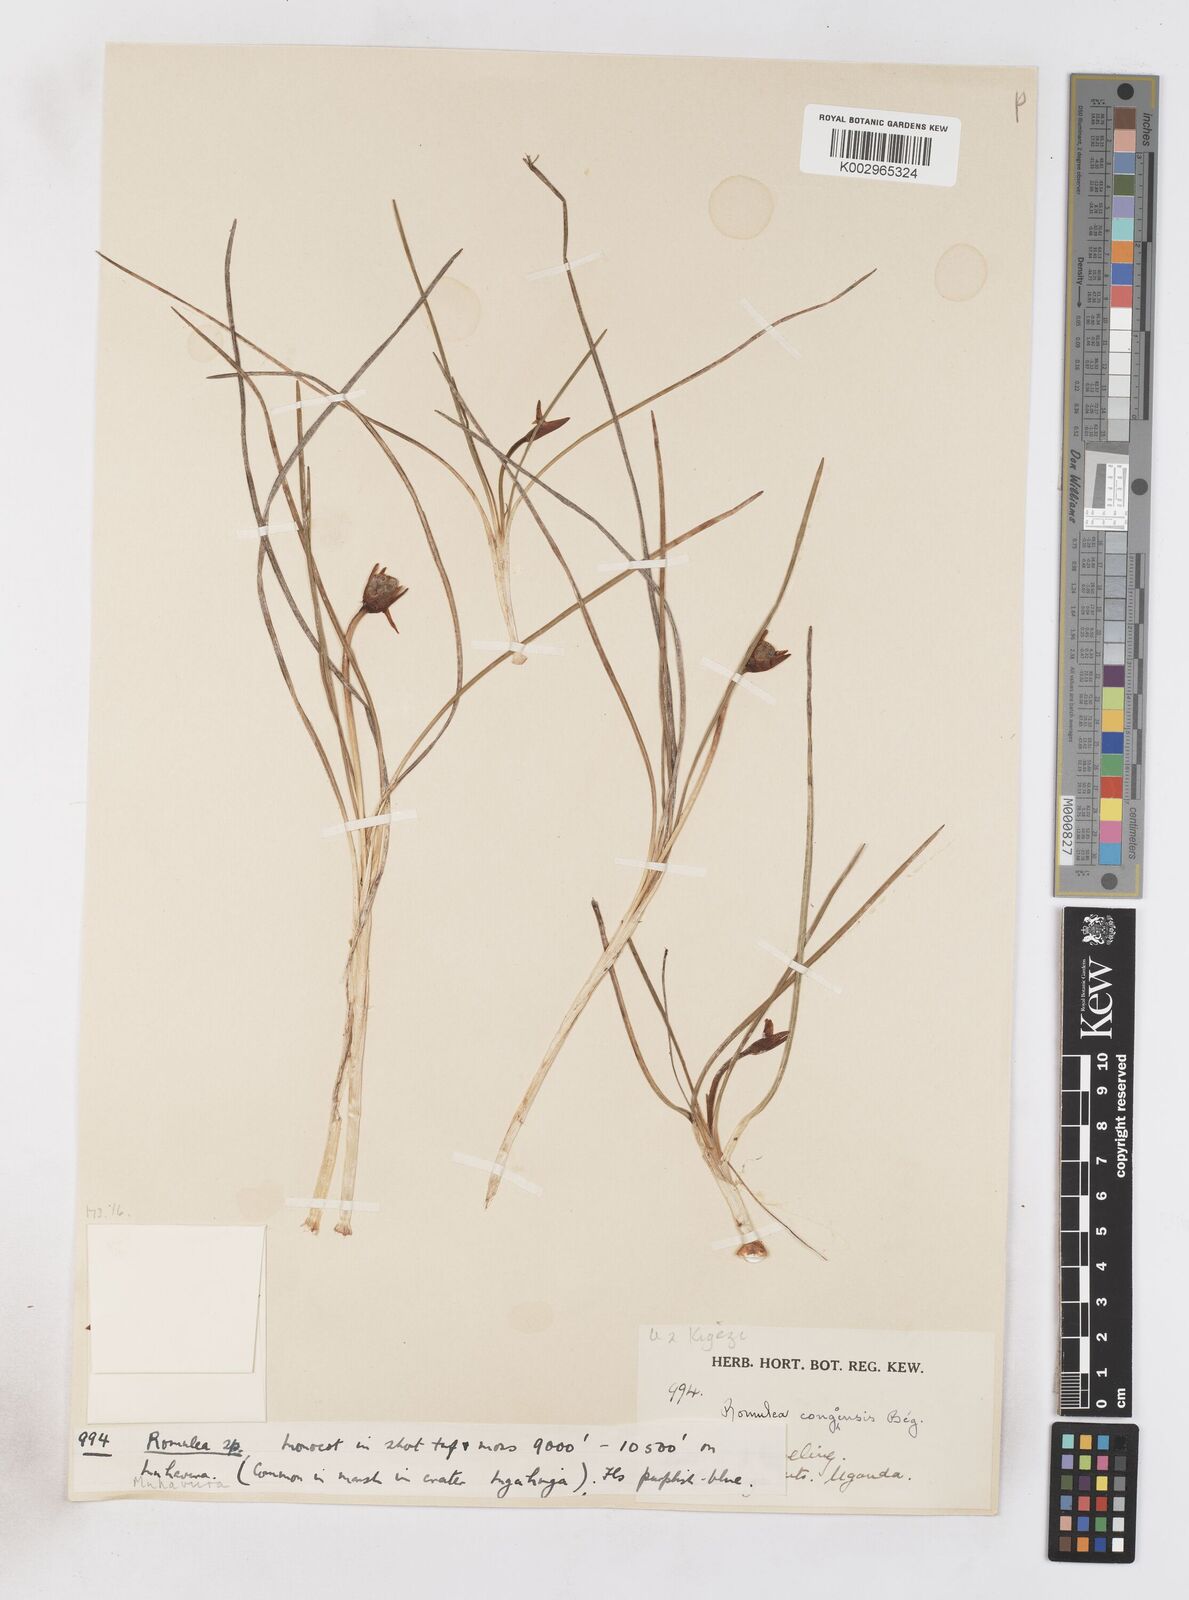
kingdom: Plantae
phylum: Tracheophyta
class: Liliopsida
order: Asparagales
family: Iridaceae
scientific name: Iridaceae
